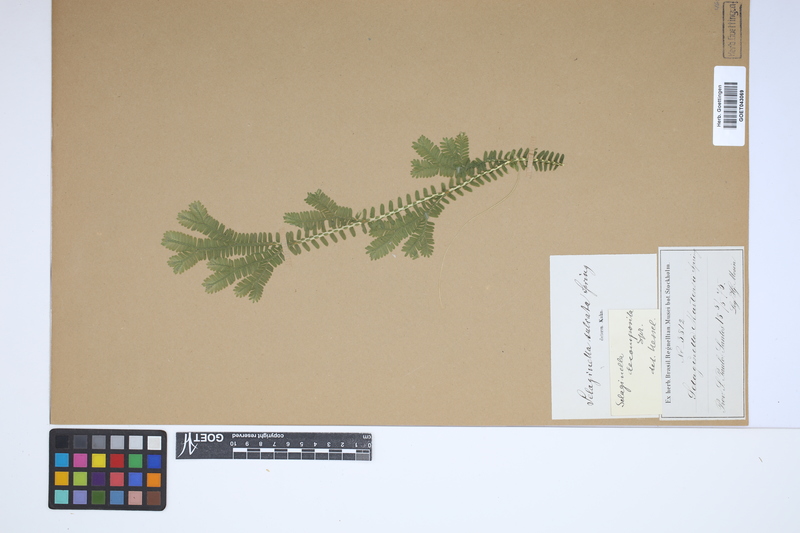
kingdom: Plantae
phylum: Tracheophyta
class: Lycopodiopsida
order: Selaginellales
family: Selaginellaceae
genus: Selaginella
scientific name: Selaginella sulcata
